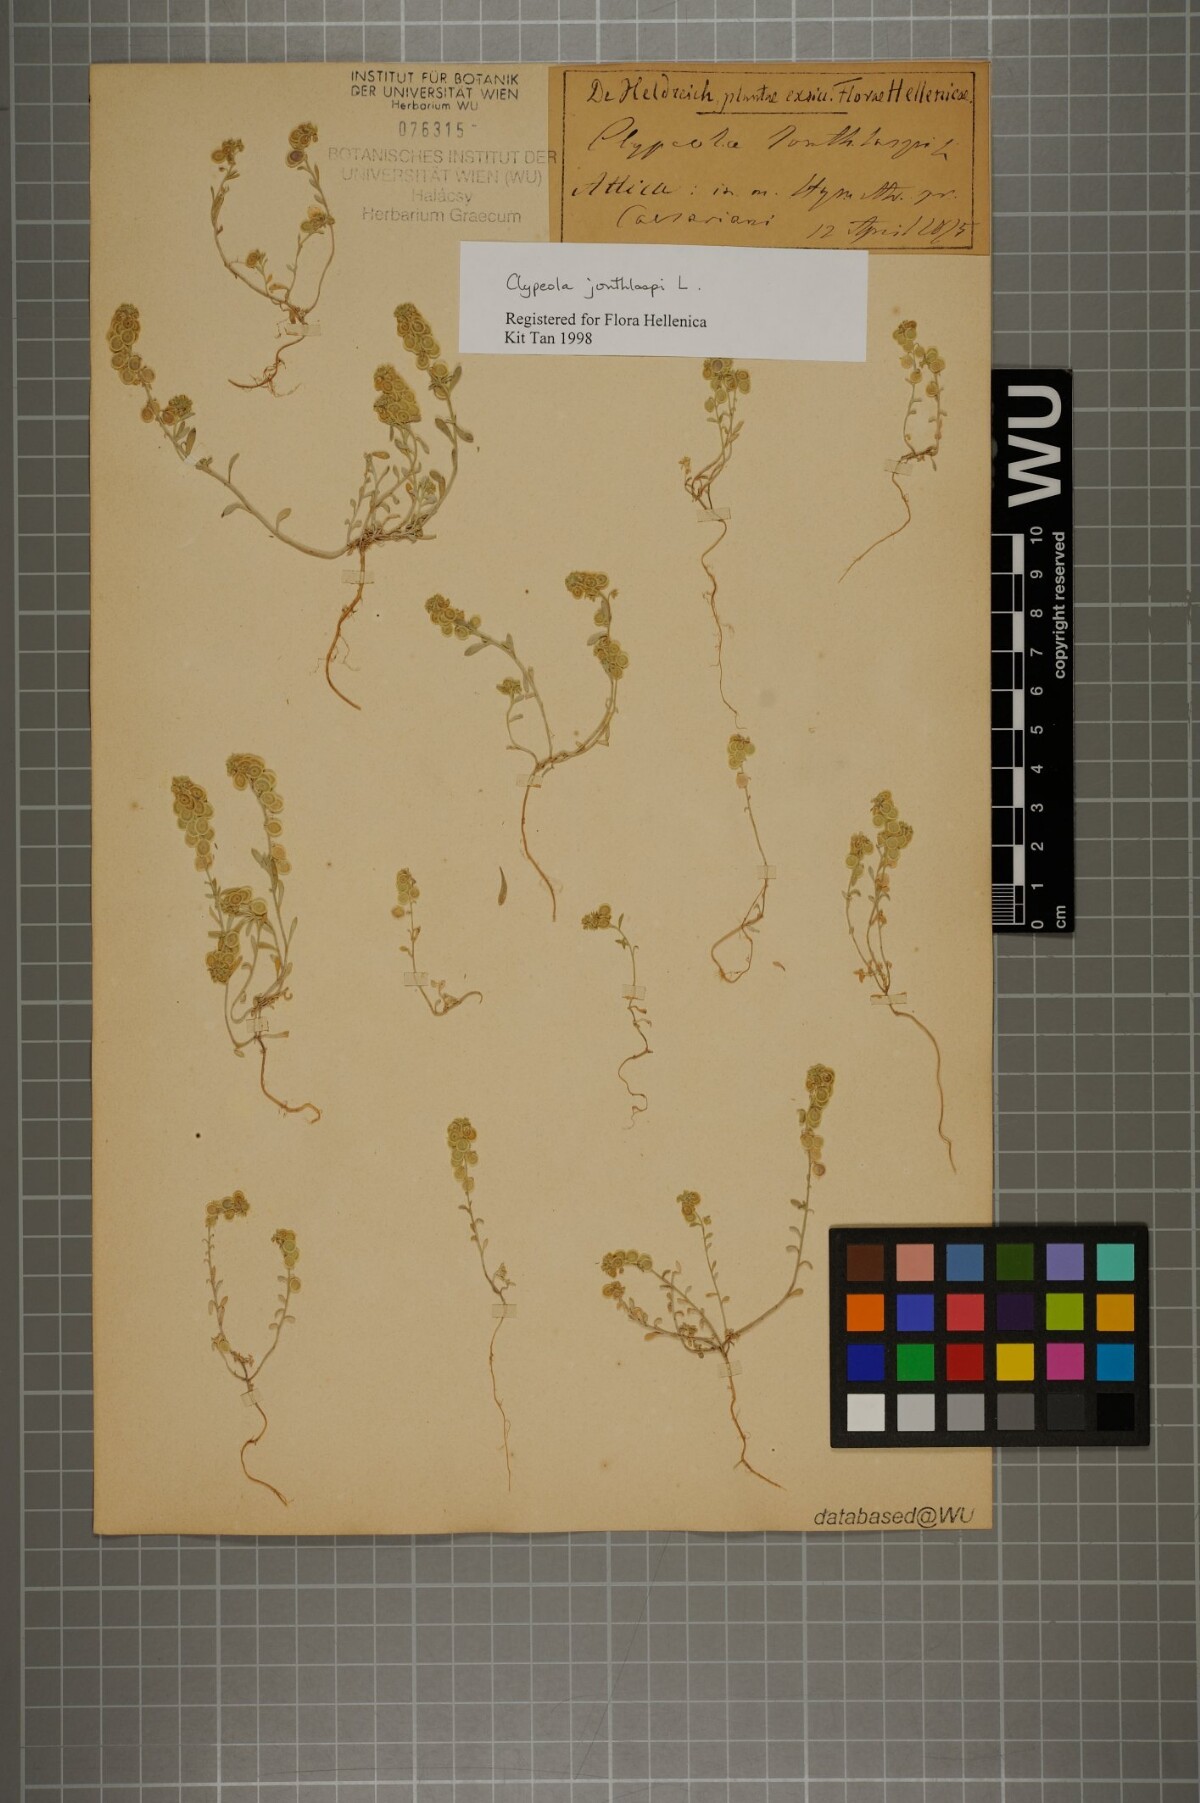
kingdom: Plantae
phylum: Tracheophyta
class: Magnoliopsida
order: Brassicales
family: Brassicaceae
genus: Clypeola
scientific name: Clypeola jonthlaspi
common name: Disk cress
